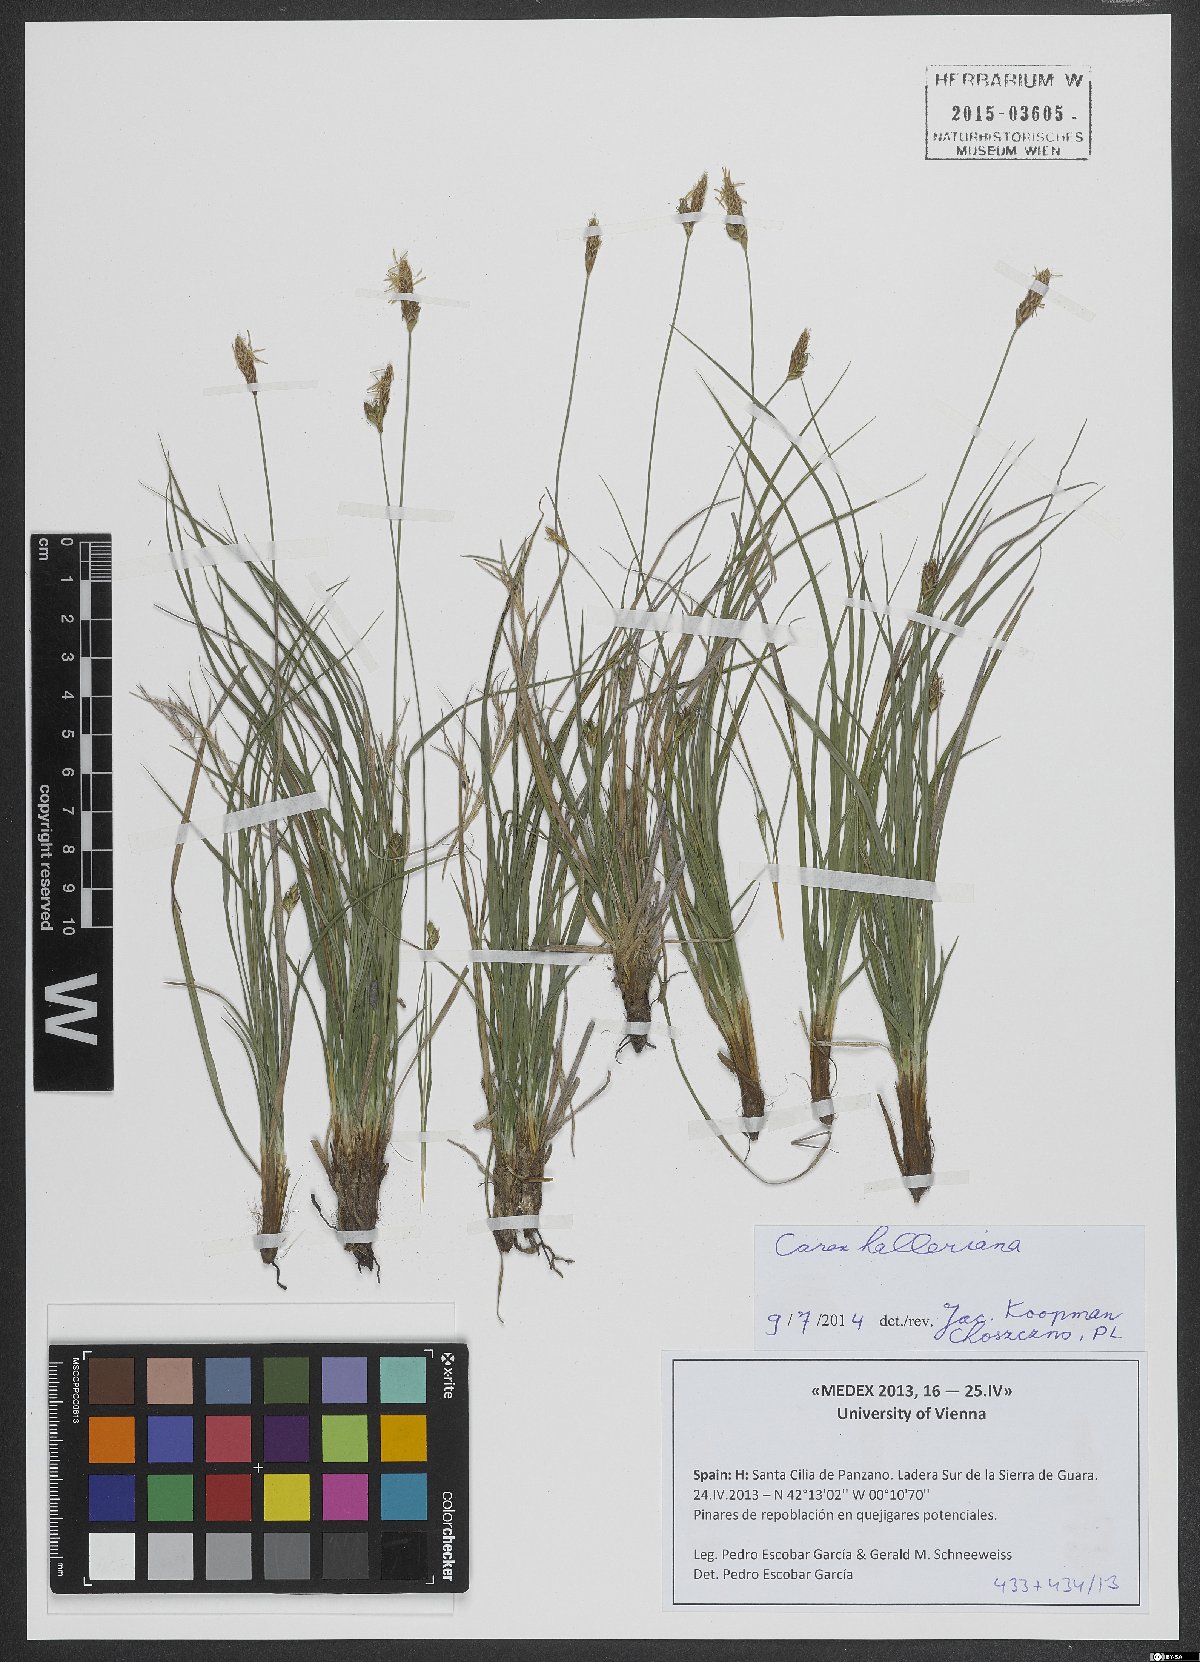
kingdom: Plantae
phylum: Tracheophyta
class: Liliopsida
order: Poales
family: Cyperaceae
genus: Carex
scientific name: Carex halleriana
